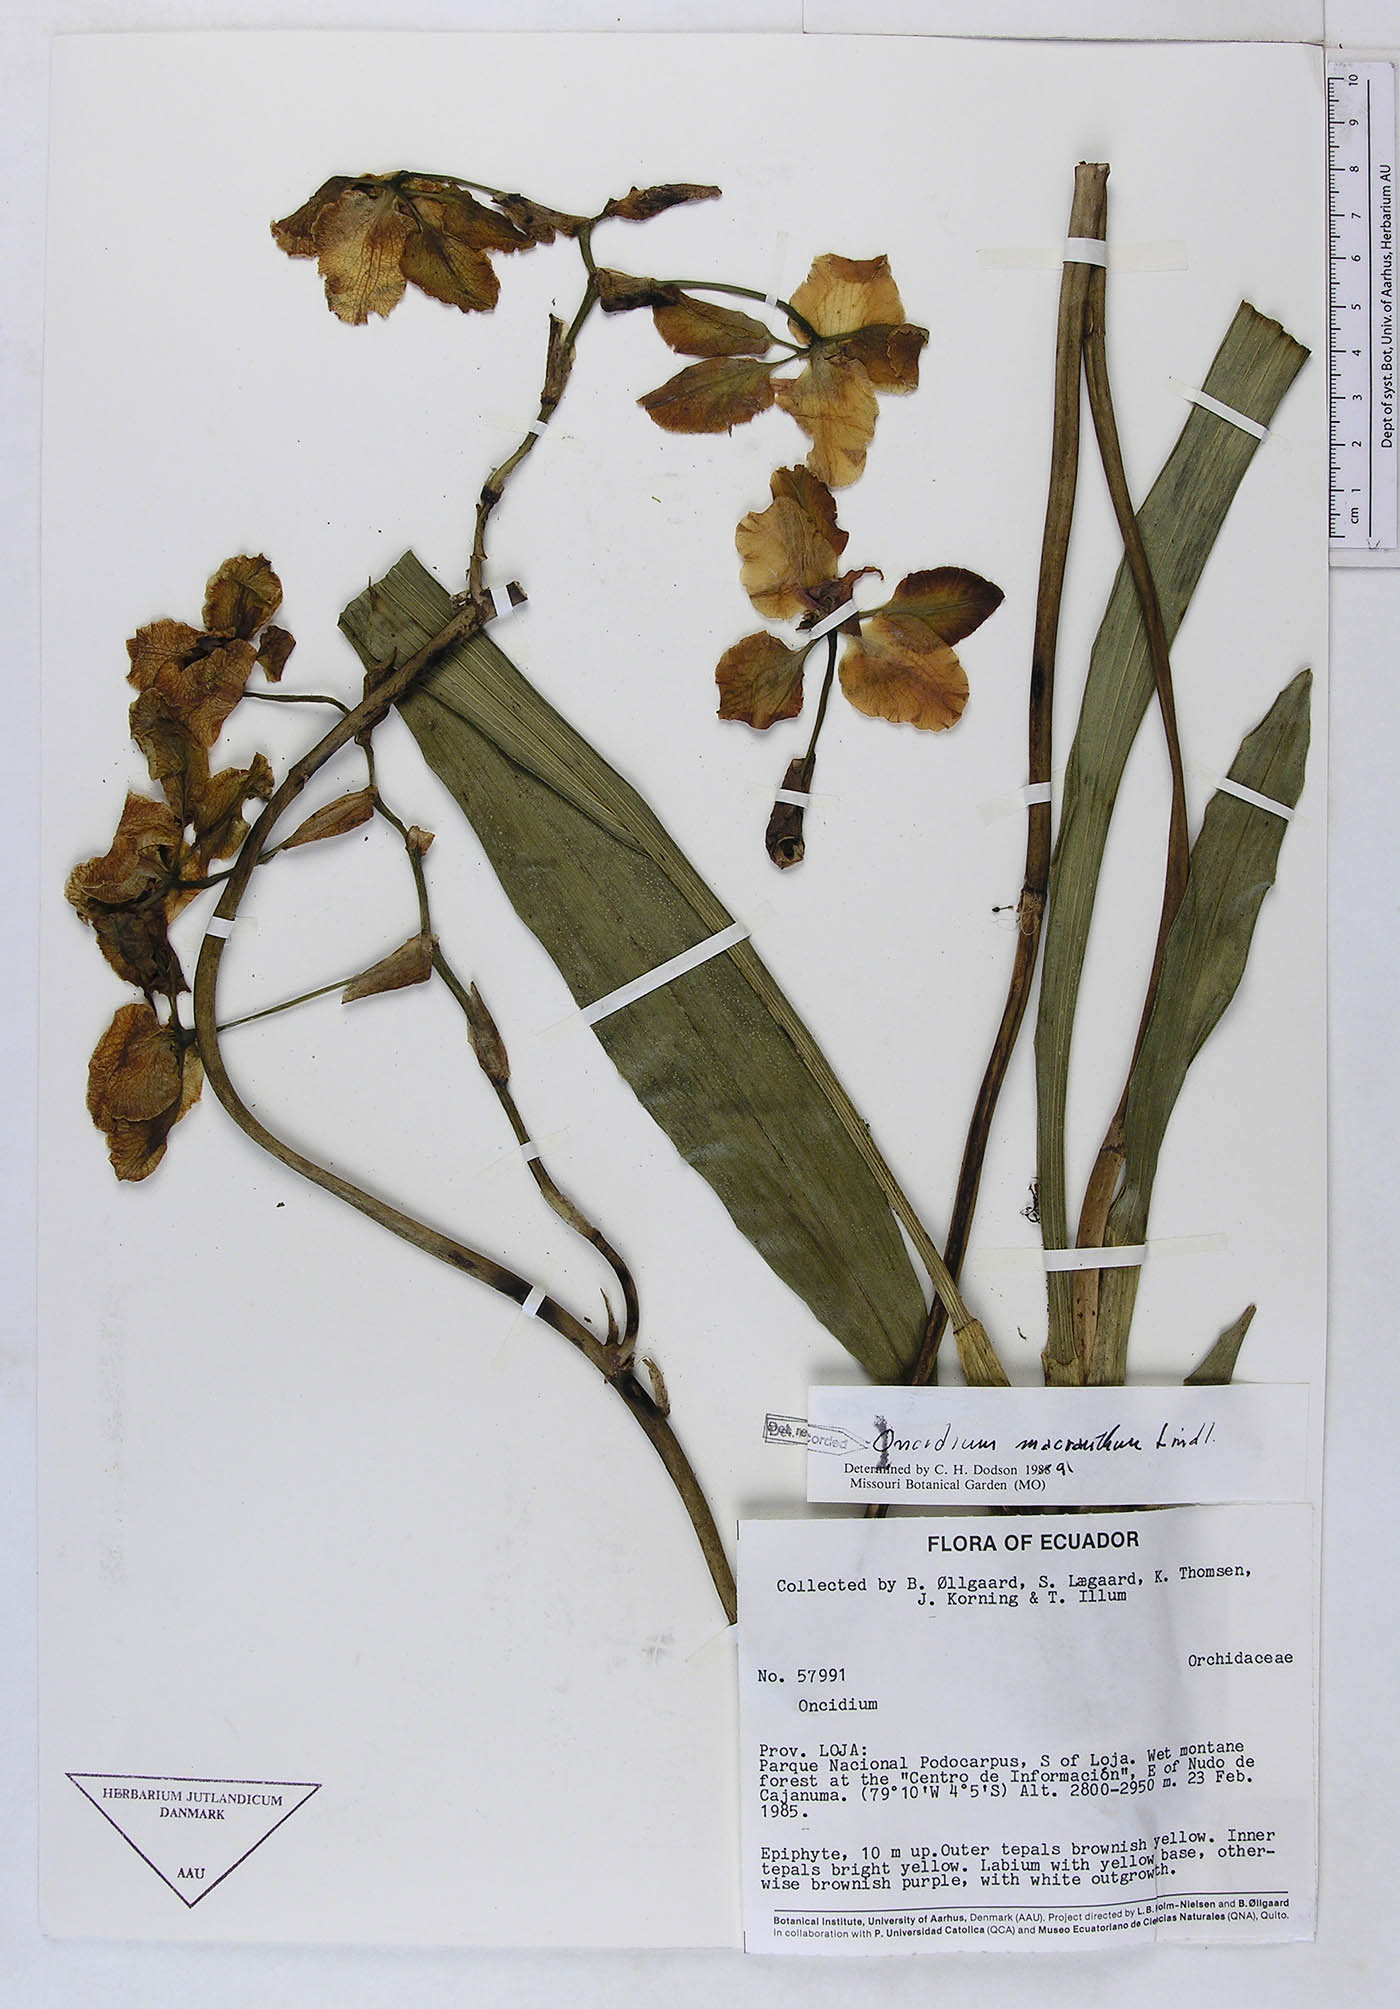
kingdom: Plantae
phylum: Tracheophyta
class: Liliopsida
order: Asparagales
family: Orchidaceae
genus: Cyrtochilum
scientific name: Cyrtochilum macranthum
